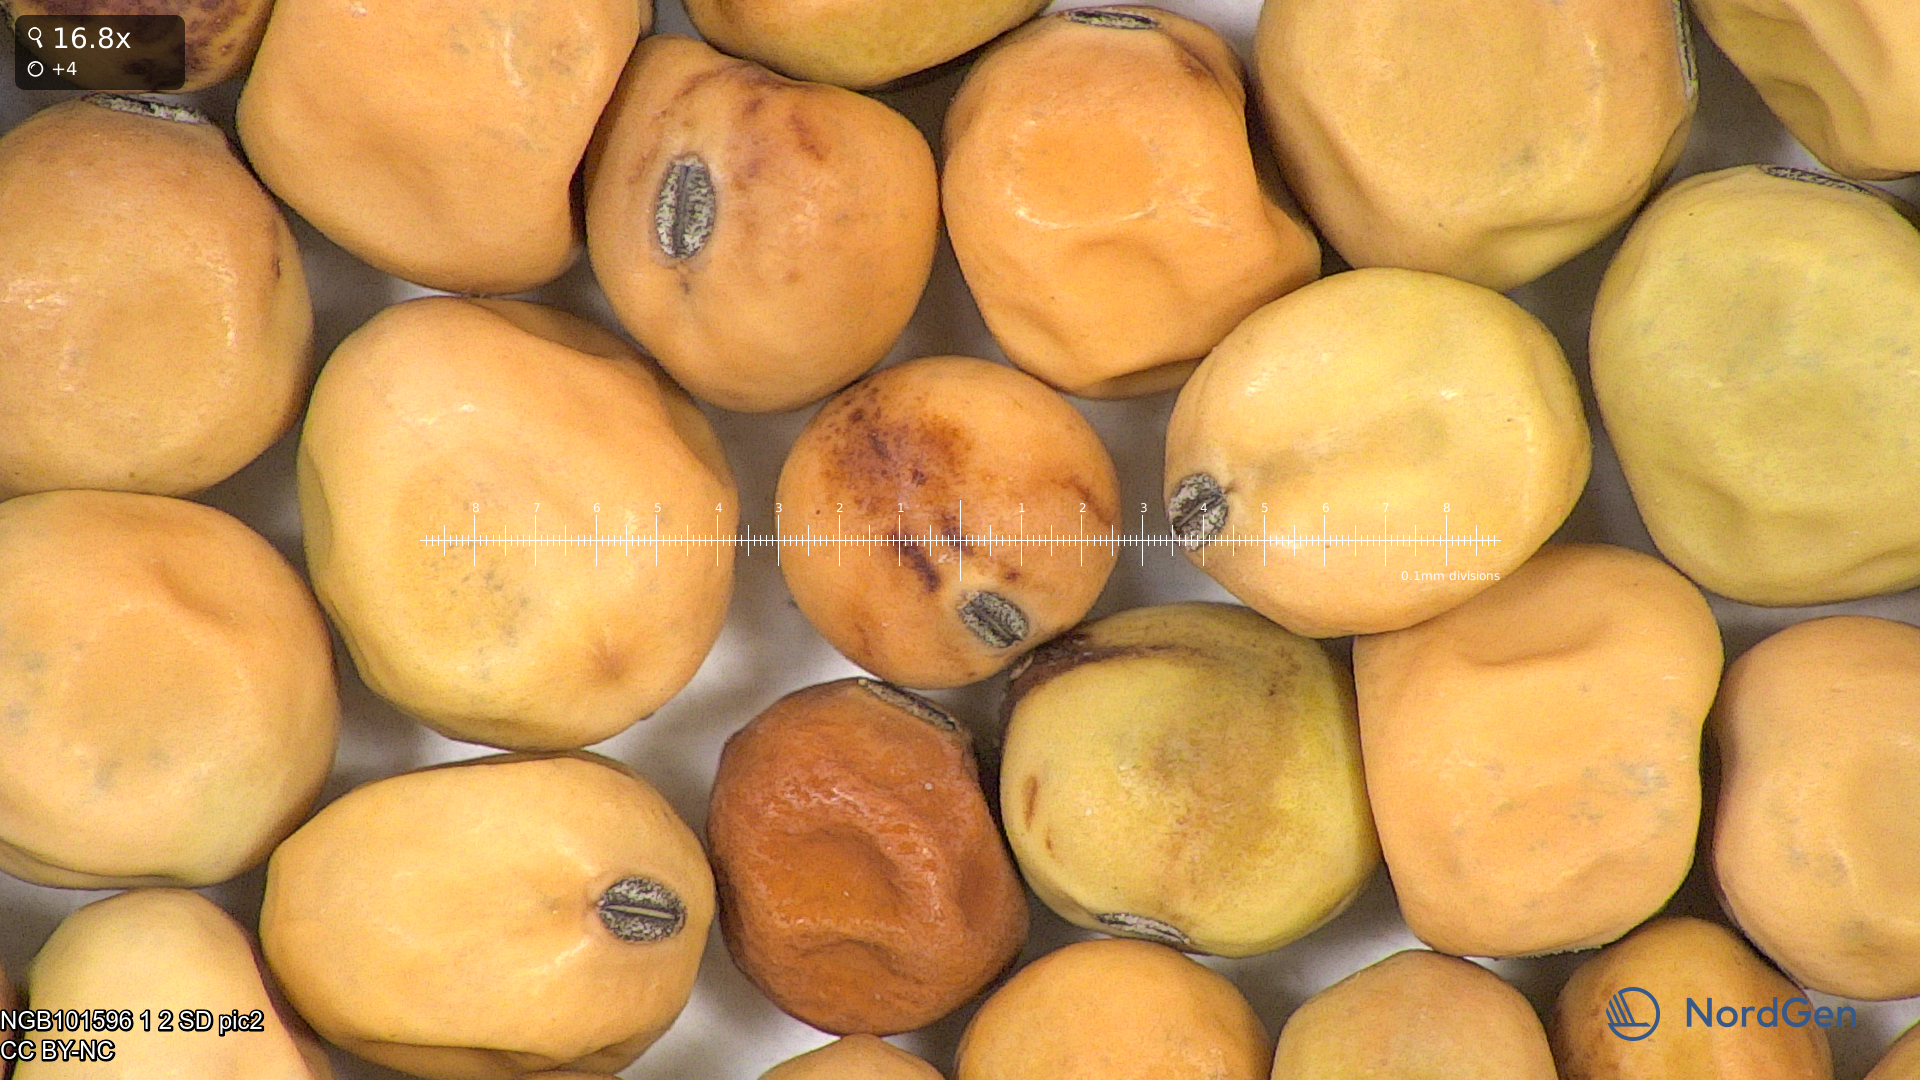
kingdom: Plantae
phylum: Tracheophyta
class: Magnoliopsida
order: Fabales
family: Fabaceae
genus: Lathyrus
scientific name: Lathyrus oleraceus
